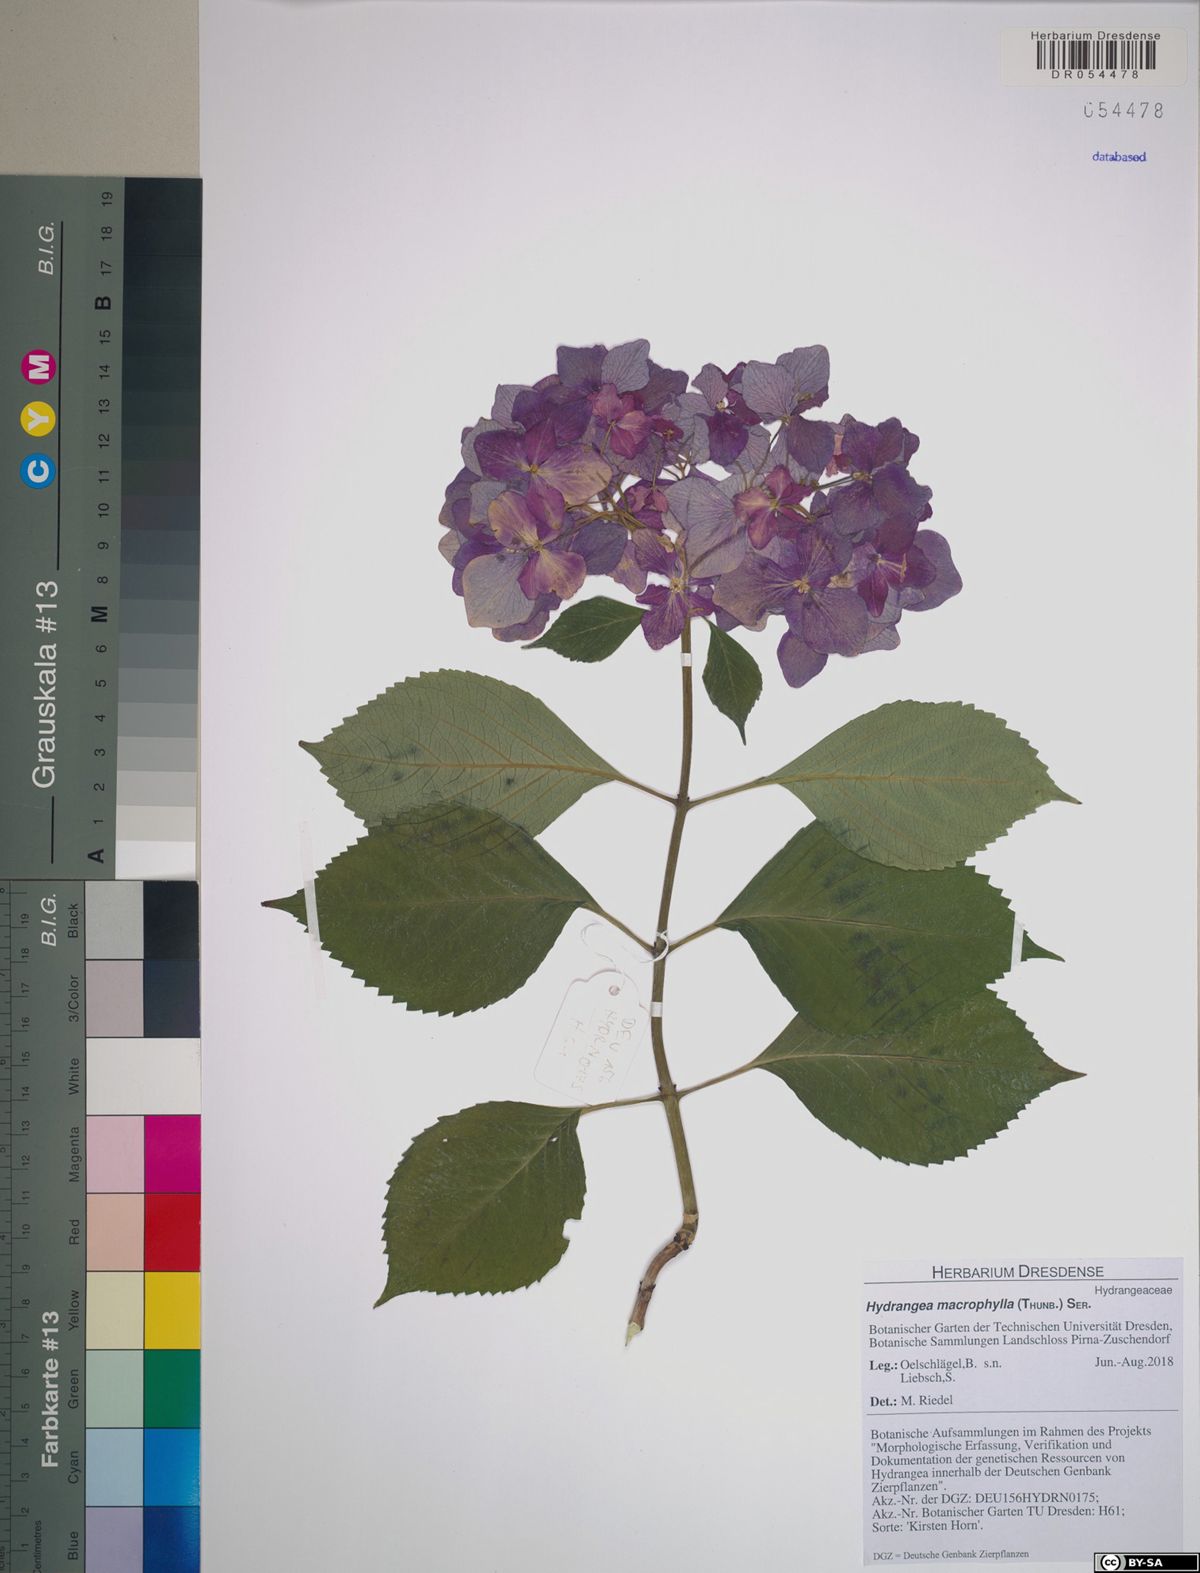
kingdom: Plantae
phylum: Tracheophyta
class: Magnoliopsida
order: Cornales
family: Hydrangeaceae
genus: Hydrangea
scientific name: Hydrangea macrophylla
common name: Hydrangea
